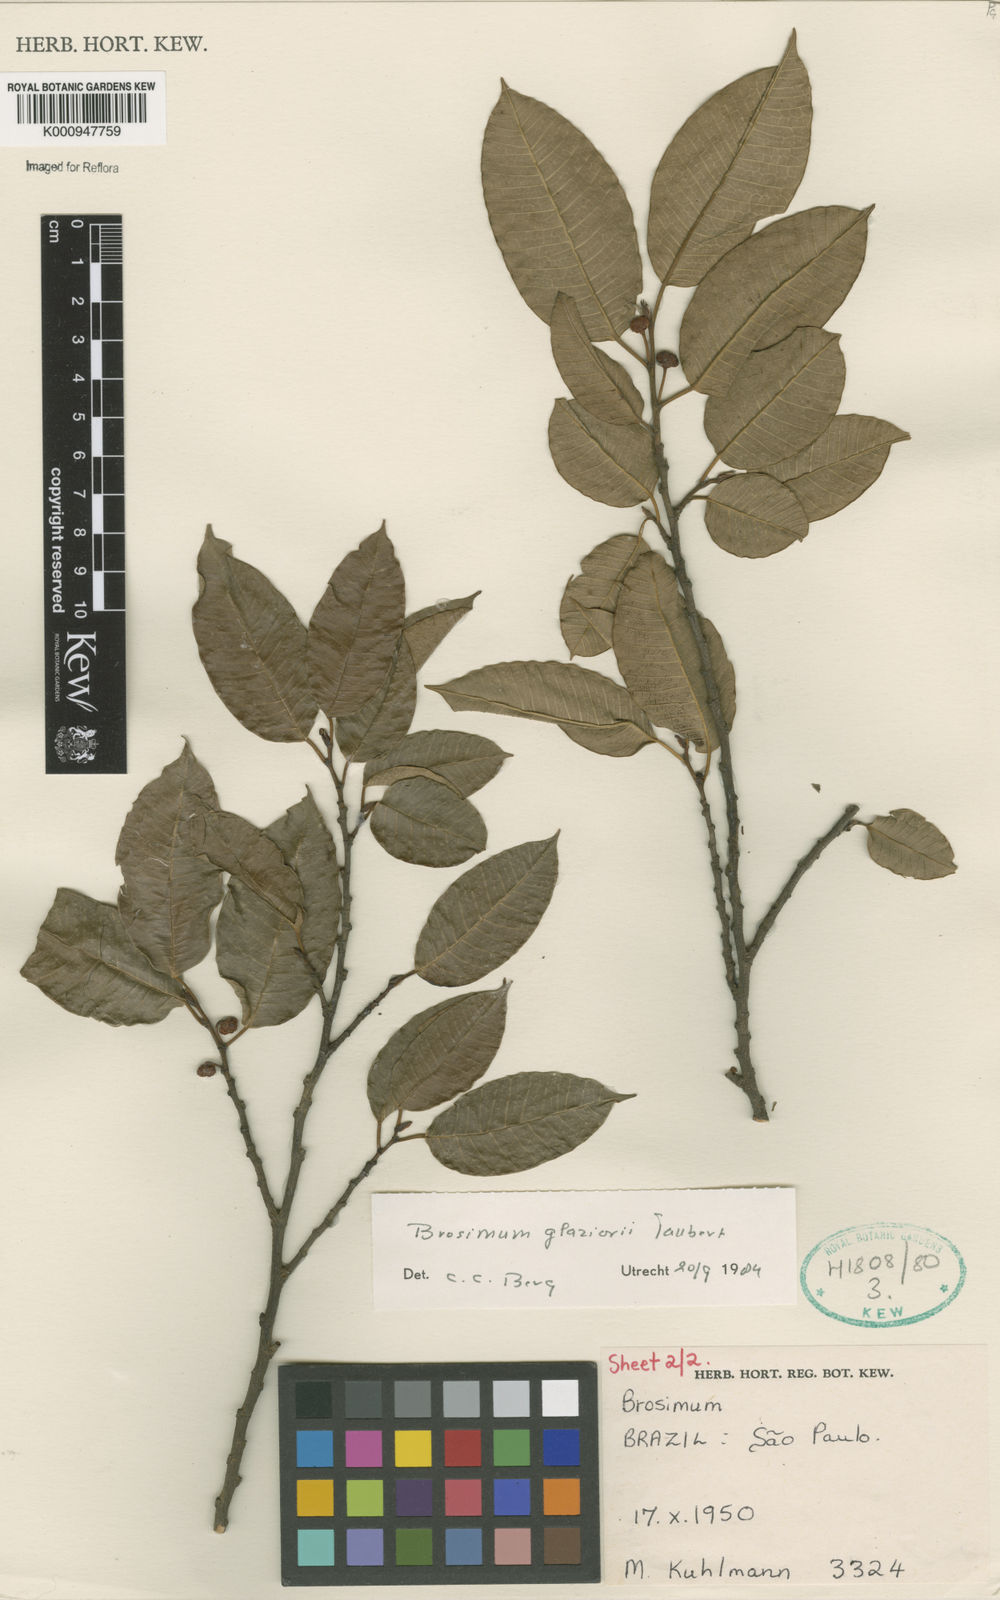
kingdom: Plantae
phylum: Tracheophyta
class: Magnoliopsida
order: Rosales
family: Moraceae
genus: Brosimum
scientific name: Brosimum glaziovii
